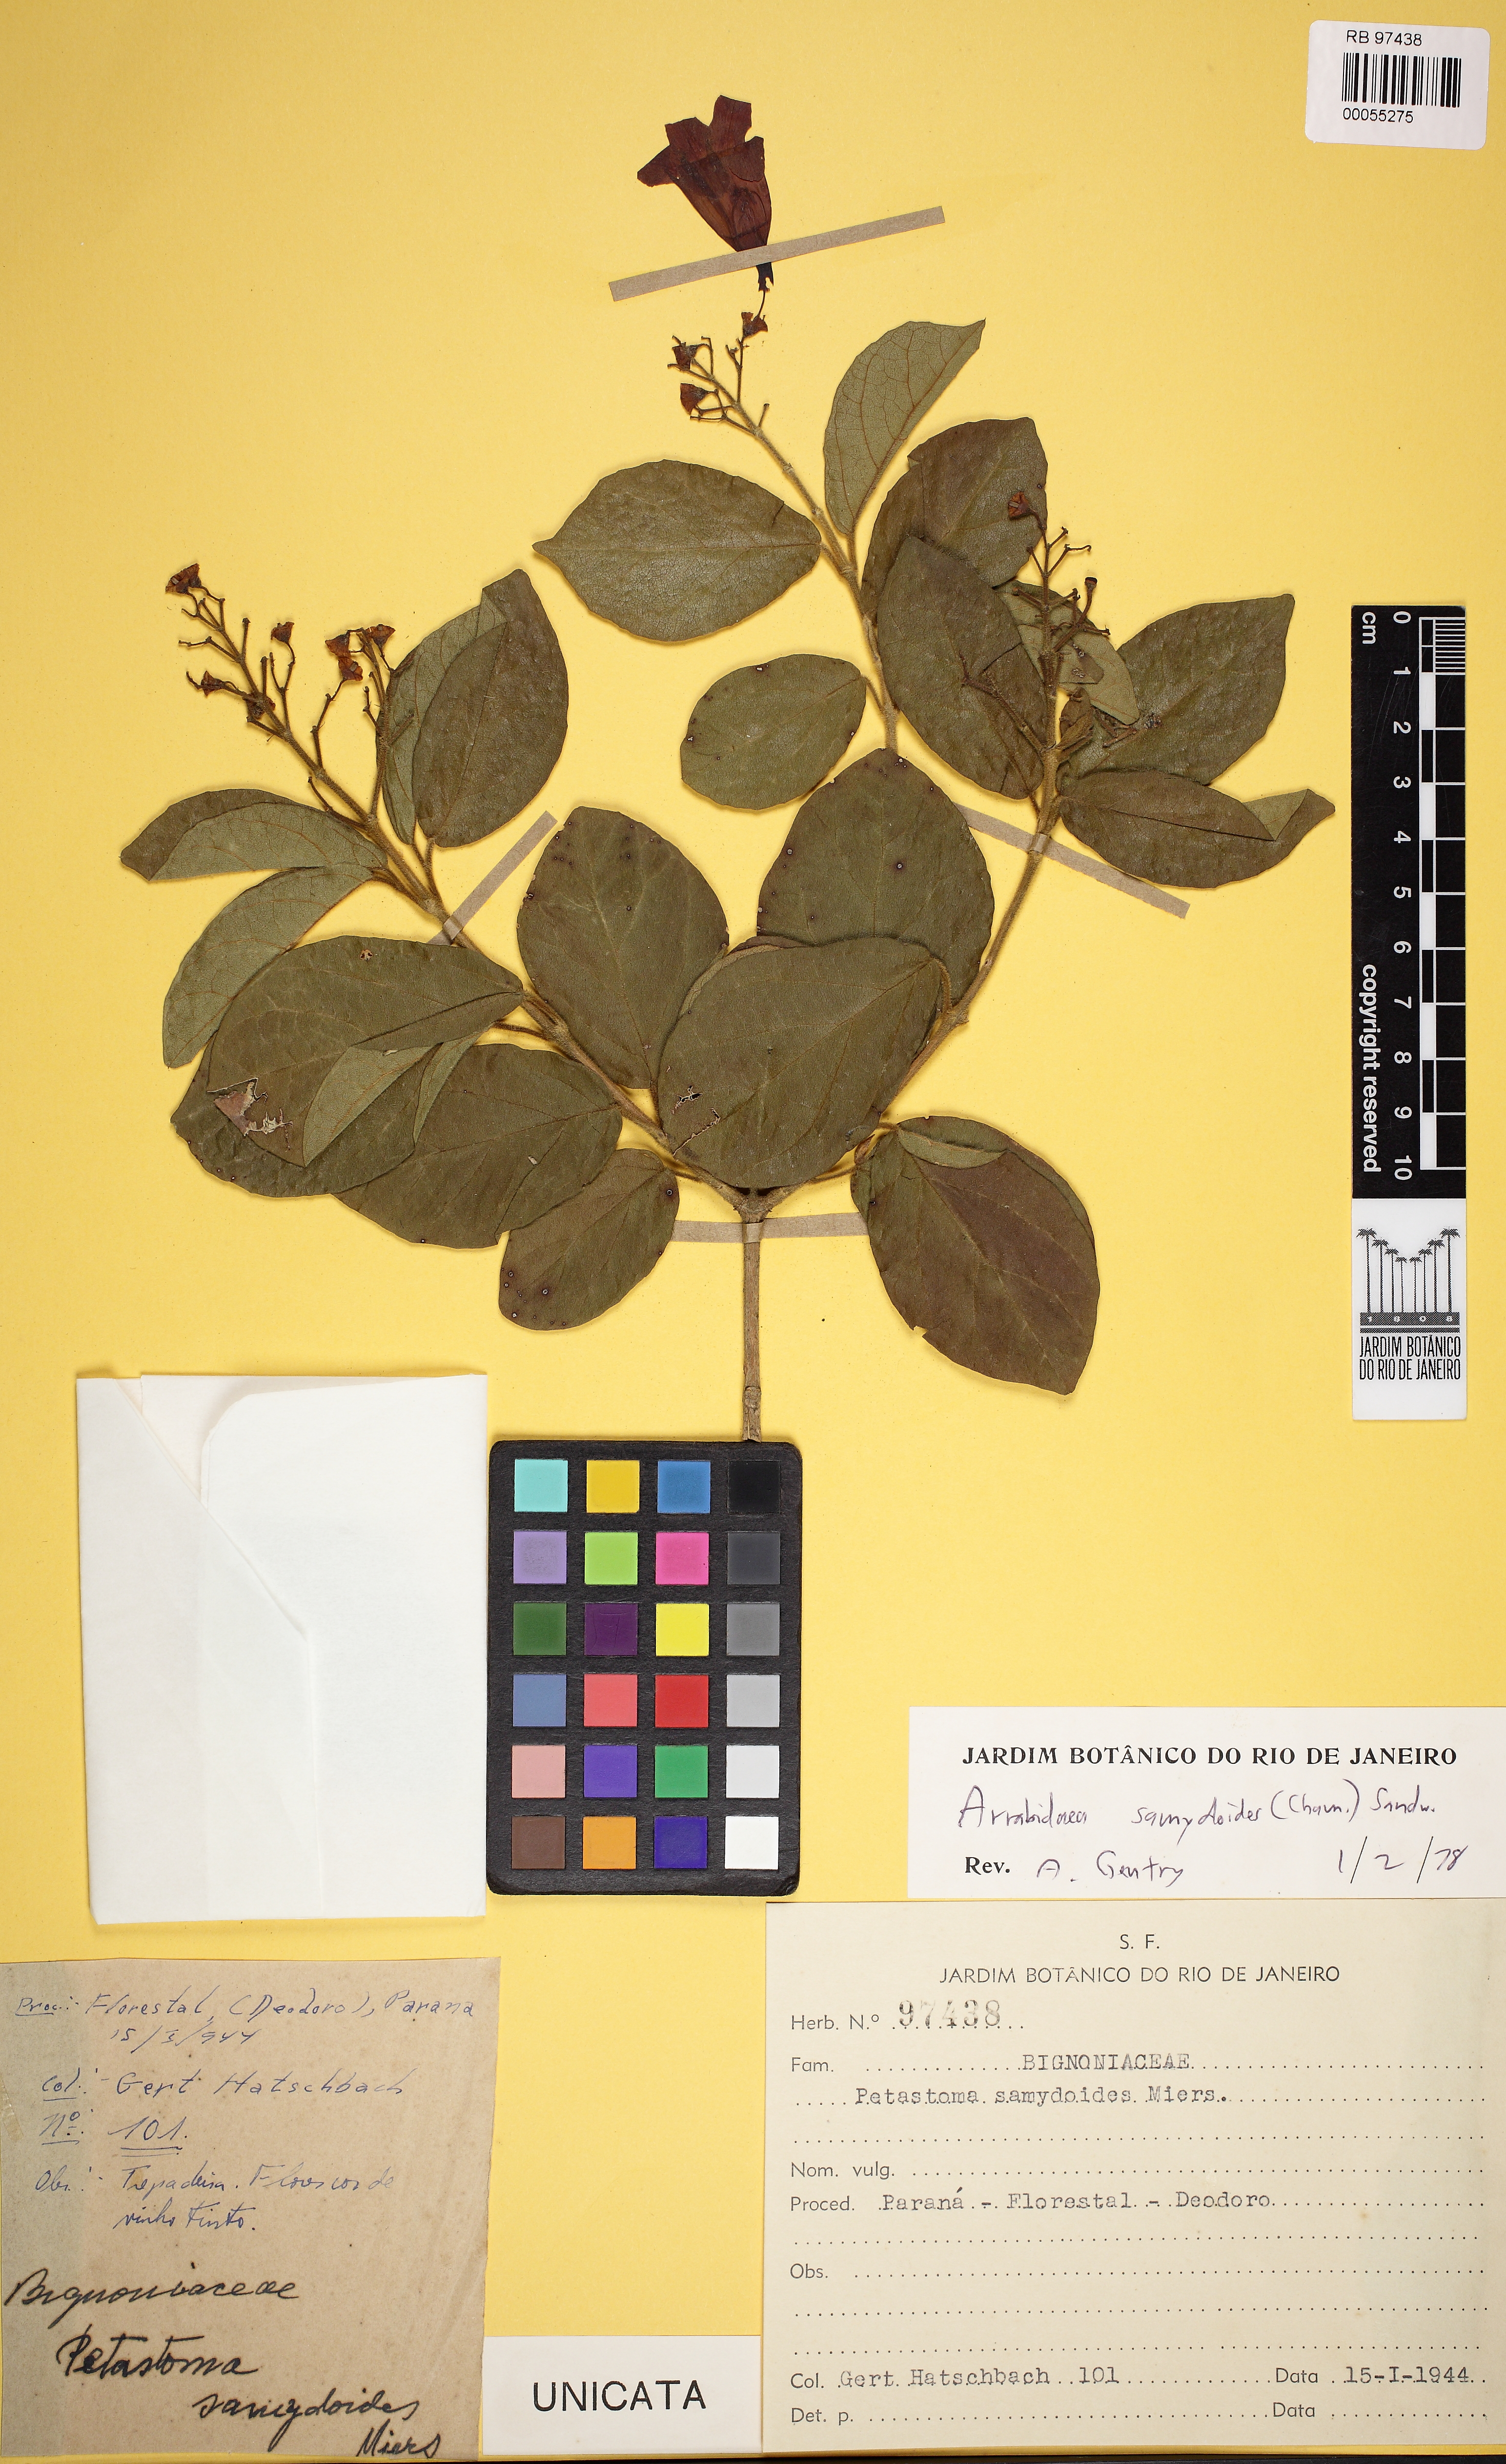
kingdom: Plantae
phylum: Tracheophyta
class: Magnoliopsida
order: Lamiales
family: Bignoniaceae
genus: Fridericia
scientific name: Fridericia samydoides
